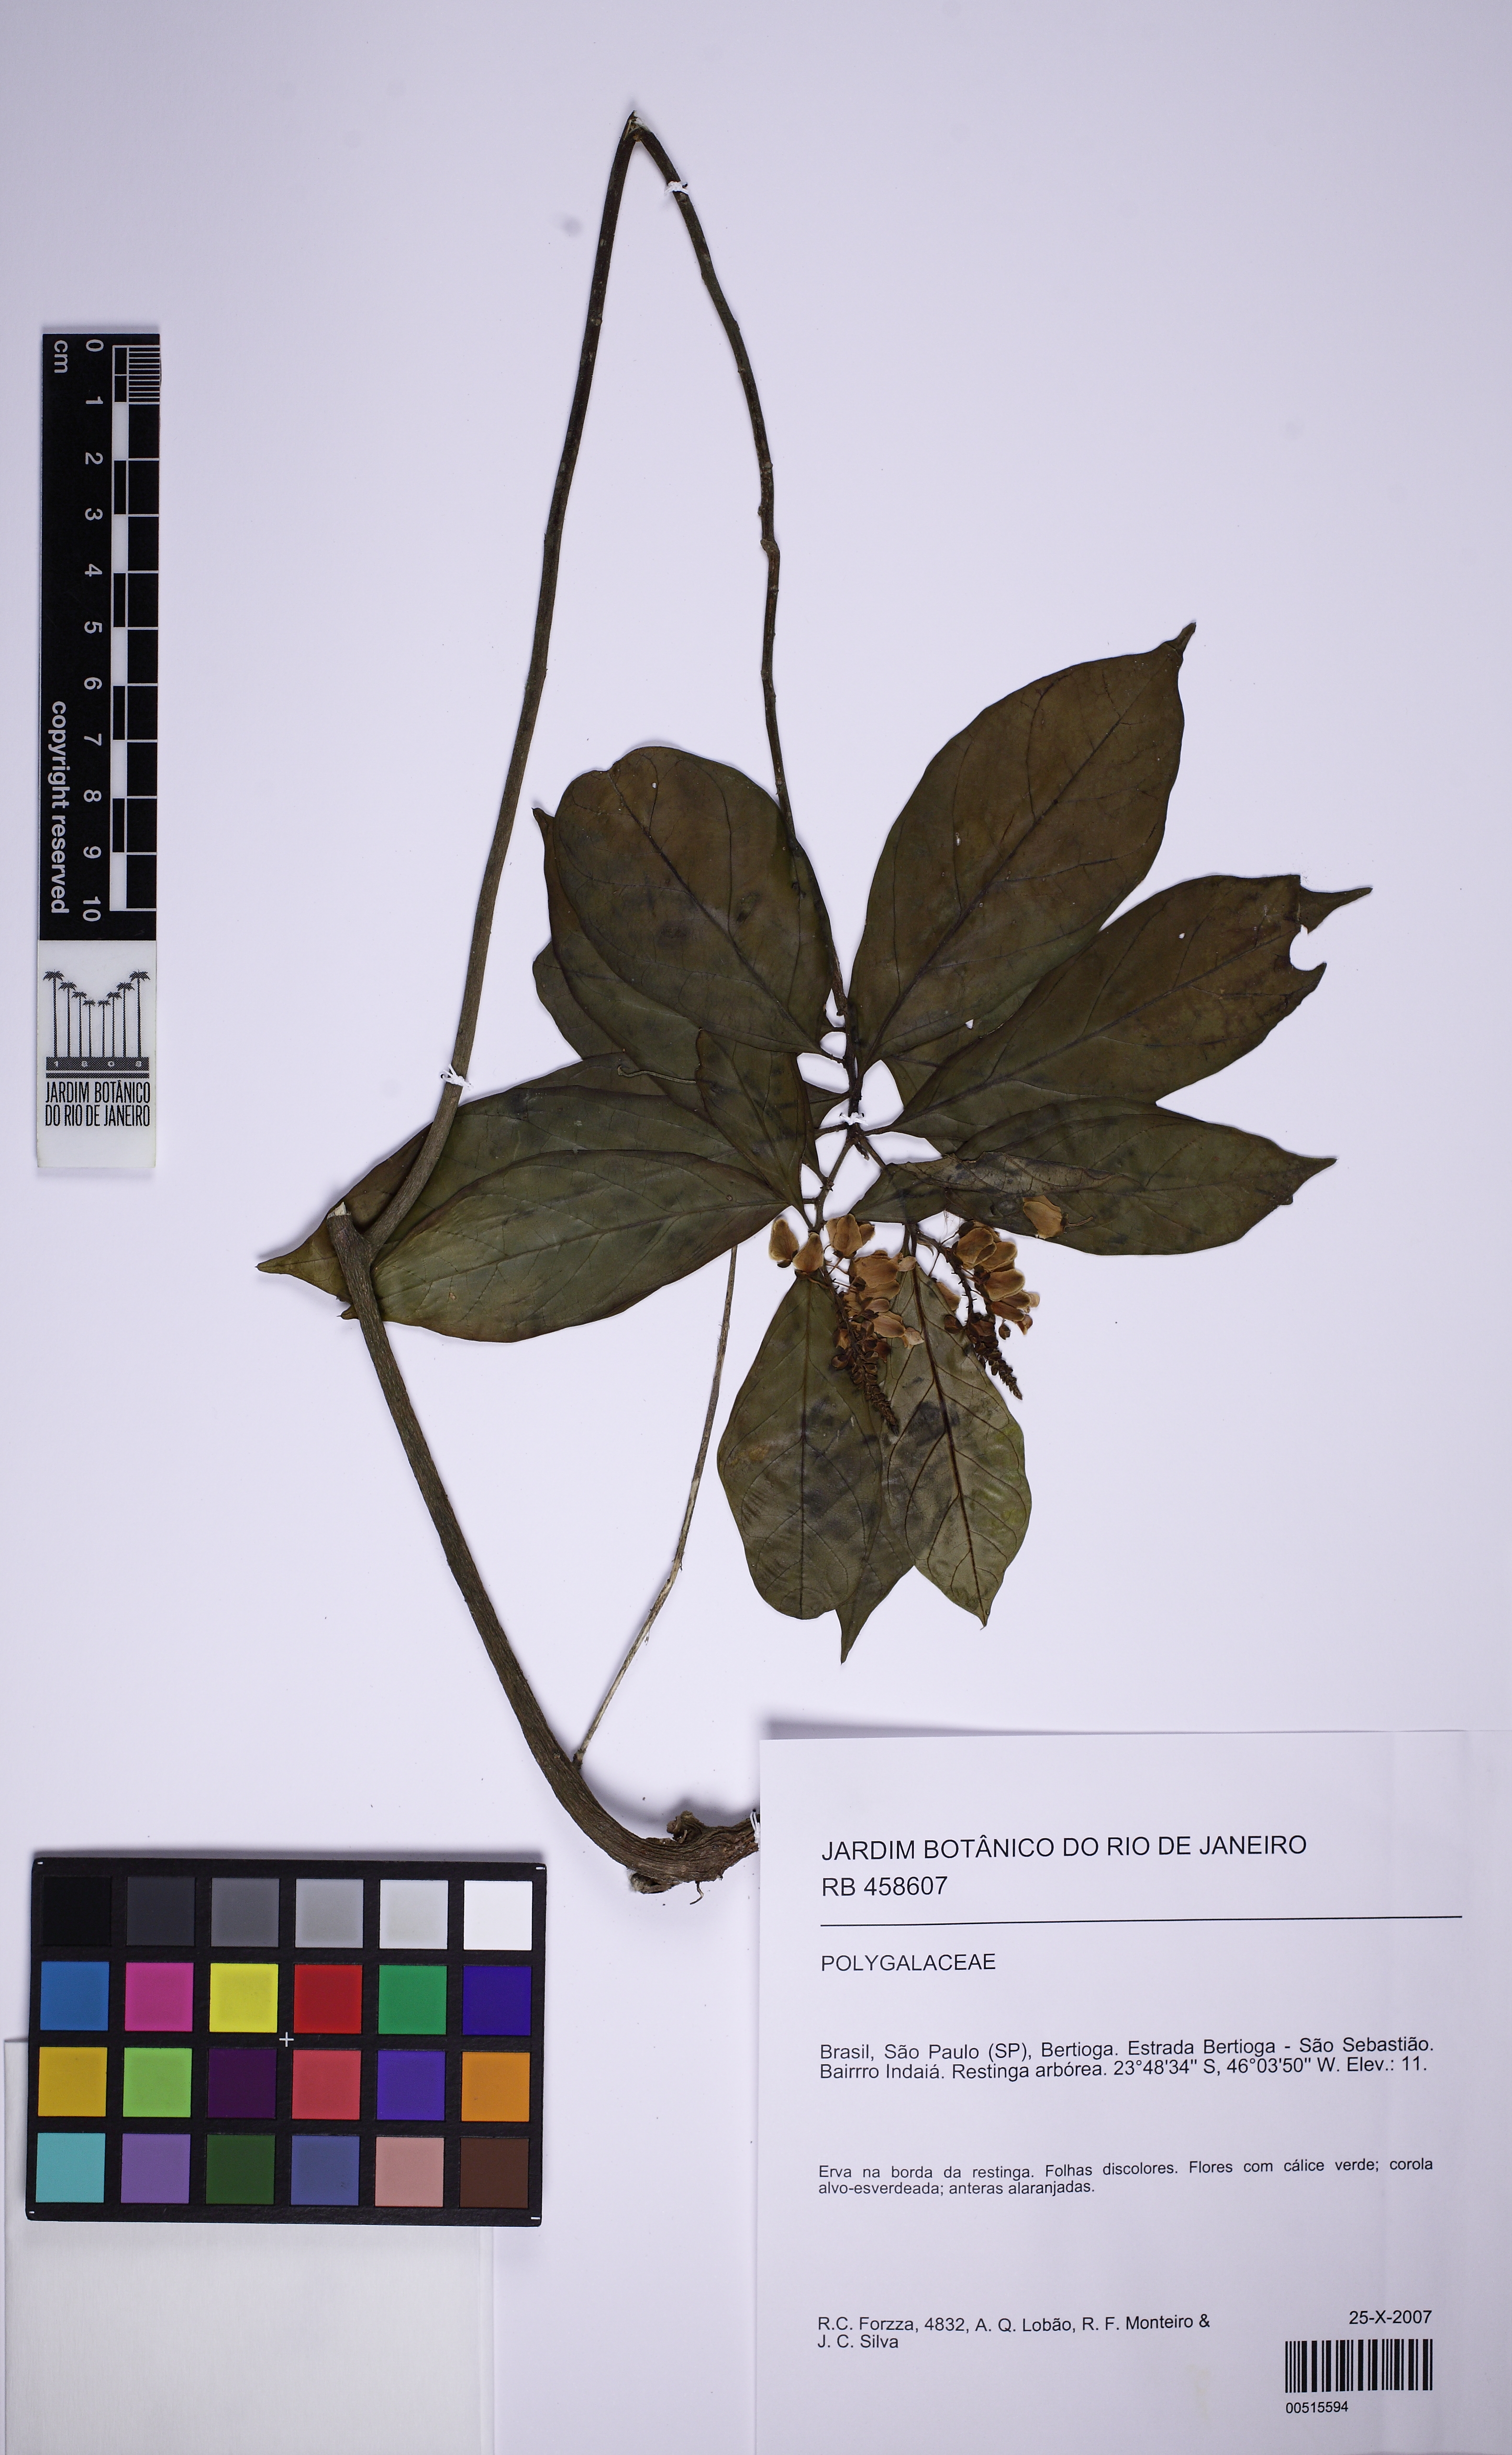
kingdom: Plantae
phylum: Tracheophyta
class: Magnoliopsida
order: Fabales
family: Polygalaceae
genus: Caamembeca
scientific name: Caamembeca
